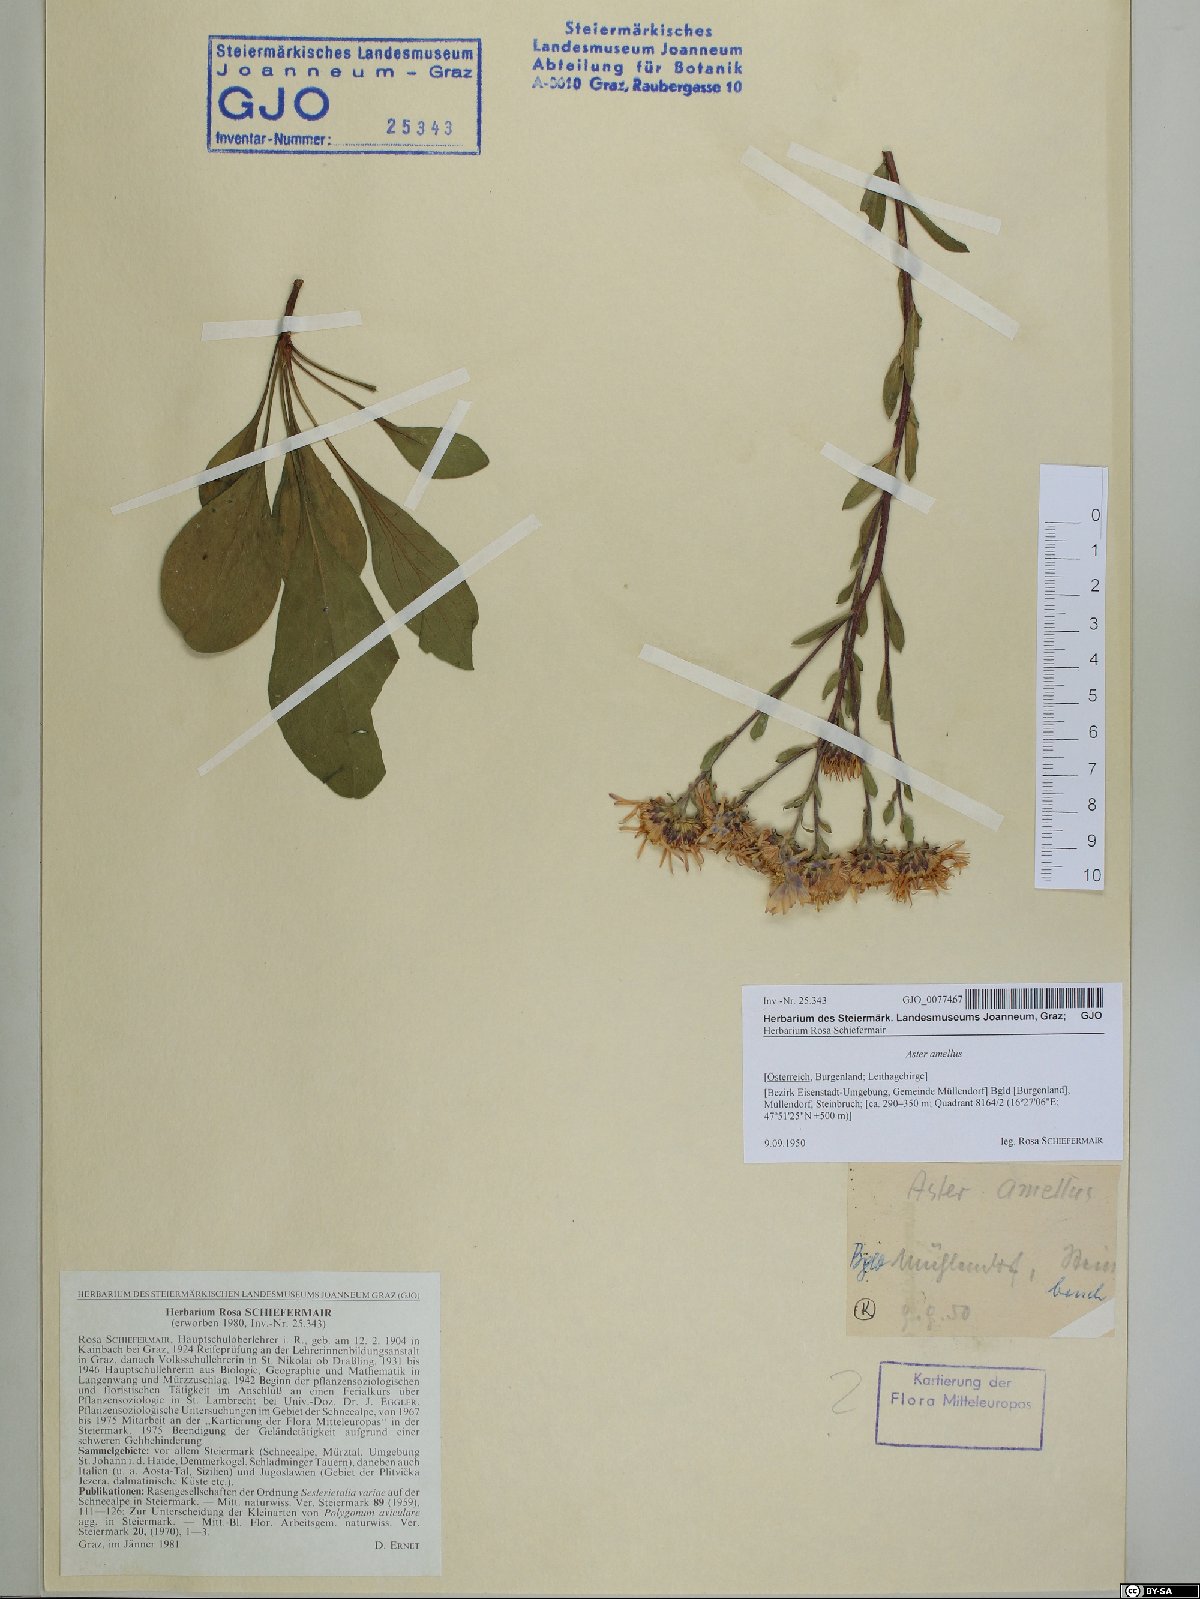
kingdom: Plantae
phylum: Tracheophyta
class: Magnoliopsida
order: Asterales
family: Asteraceae
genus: Aster
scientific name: Aster amellus
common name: European michaelmas daisy
